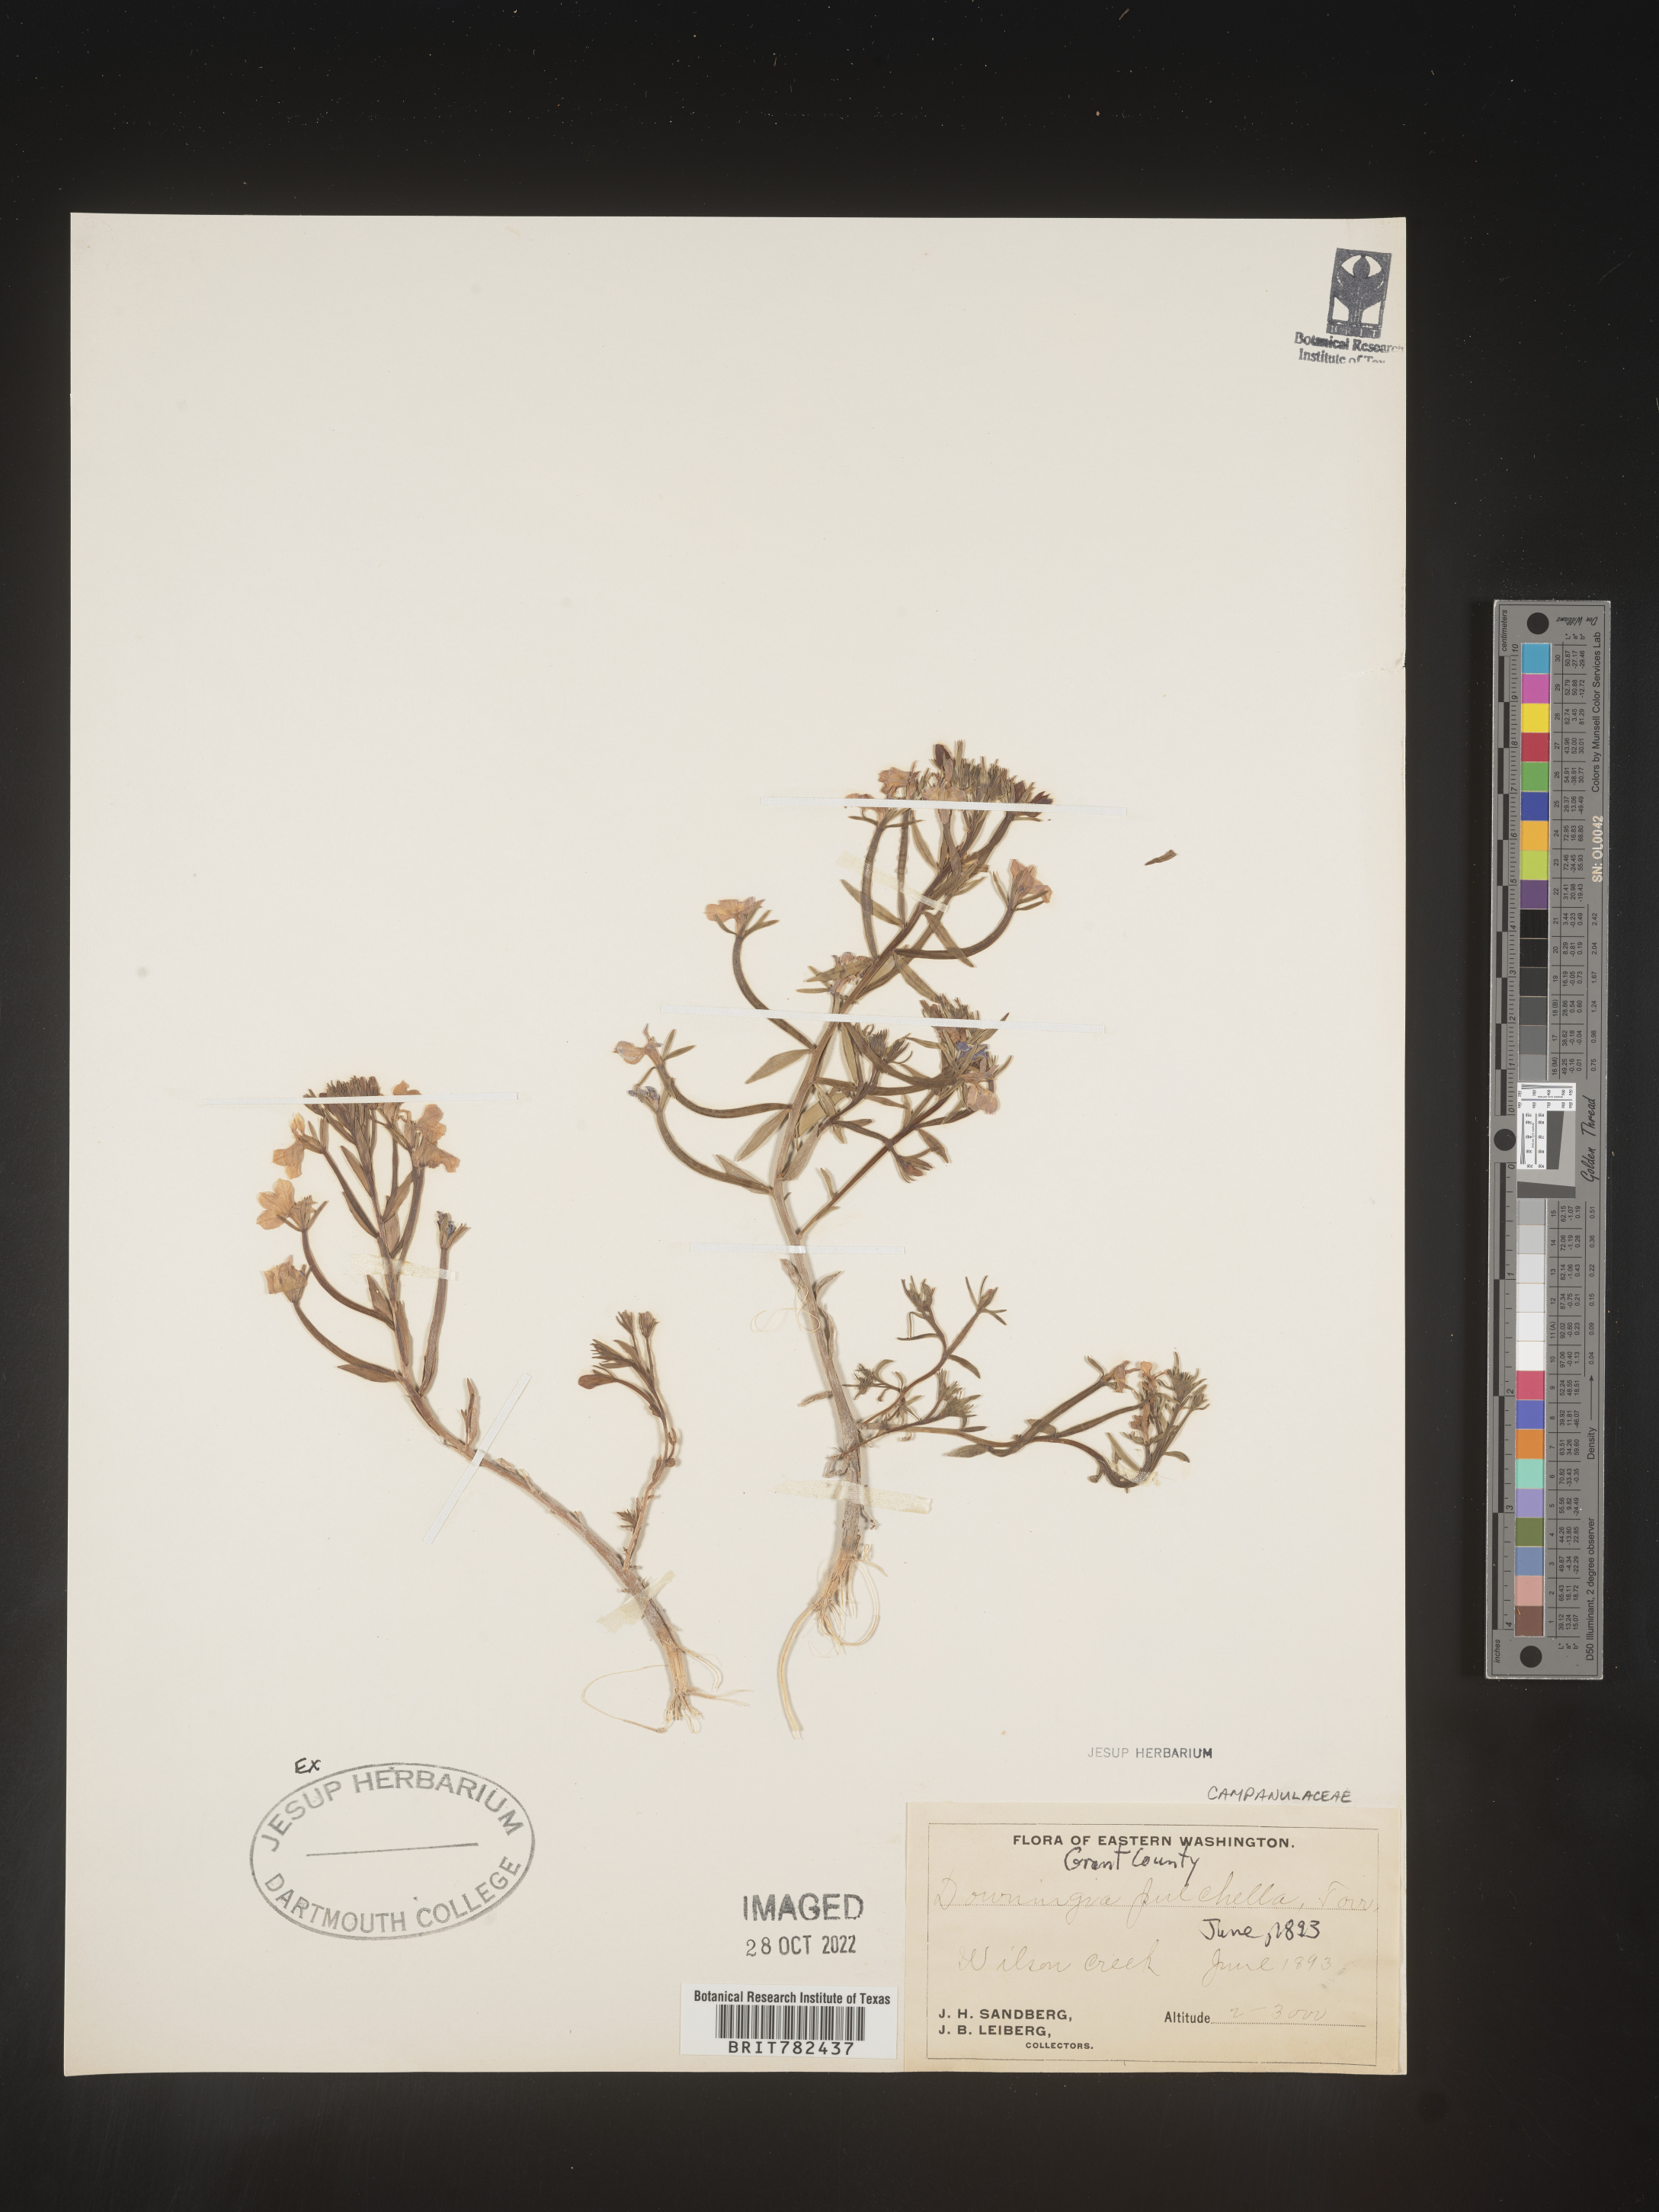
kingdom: Plantae
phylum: Tracheophyta
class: Magnoliopsida
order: Asterales
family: Campanulaceae
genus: Downingia
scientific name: Downingia
